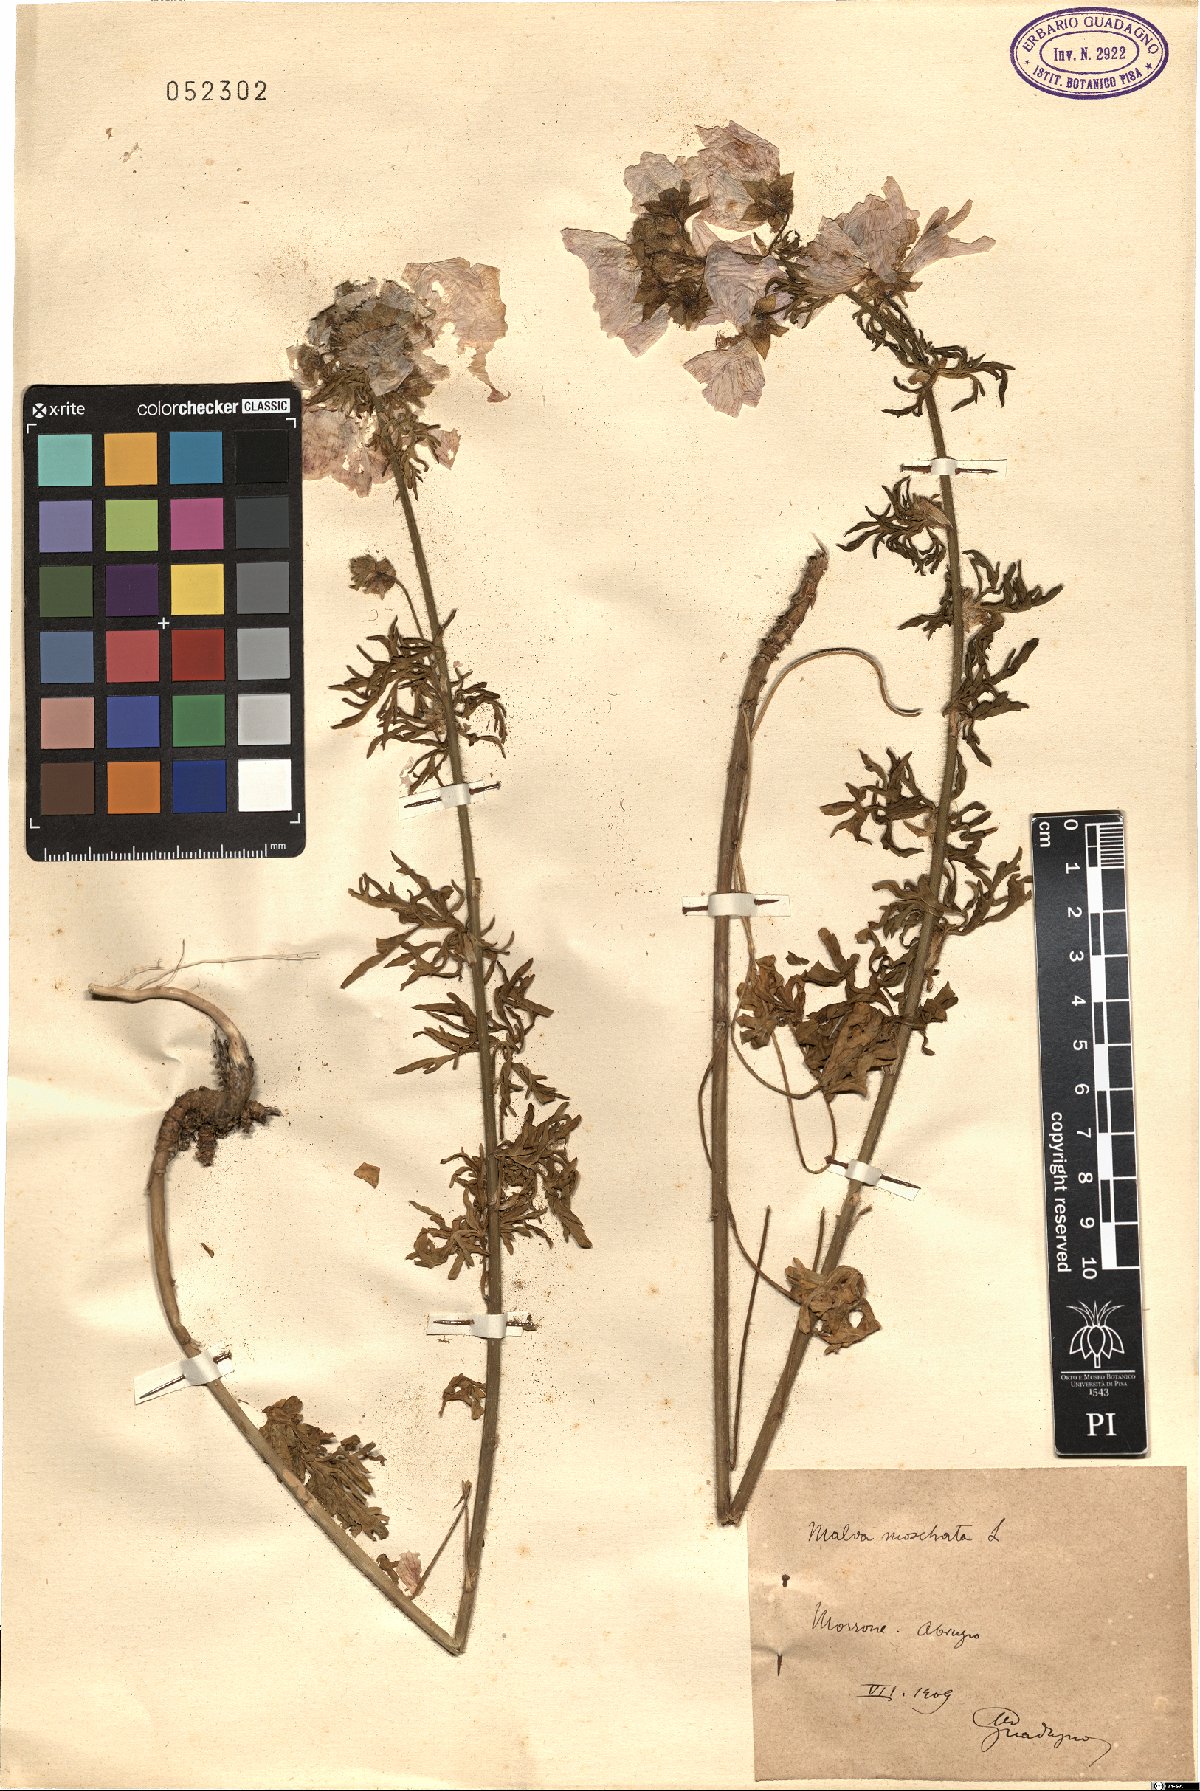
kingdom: Plantae
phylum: Tracheophyta
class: Magnoliopsida
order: Malvales
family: Malvaceae
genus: Malva
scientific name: Malva moschata
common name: Musk mallow
